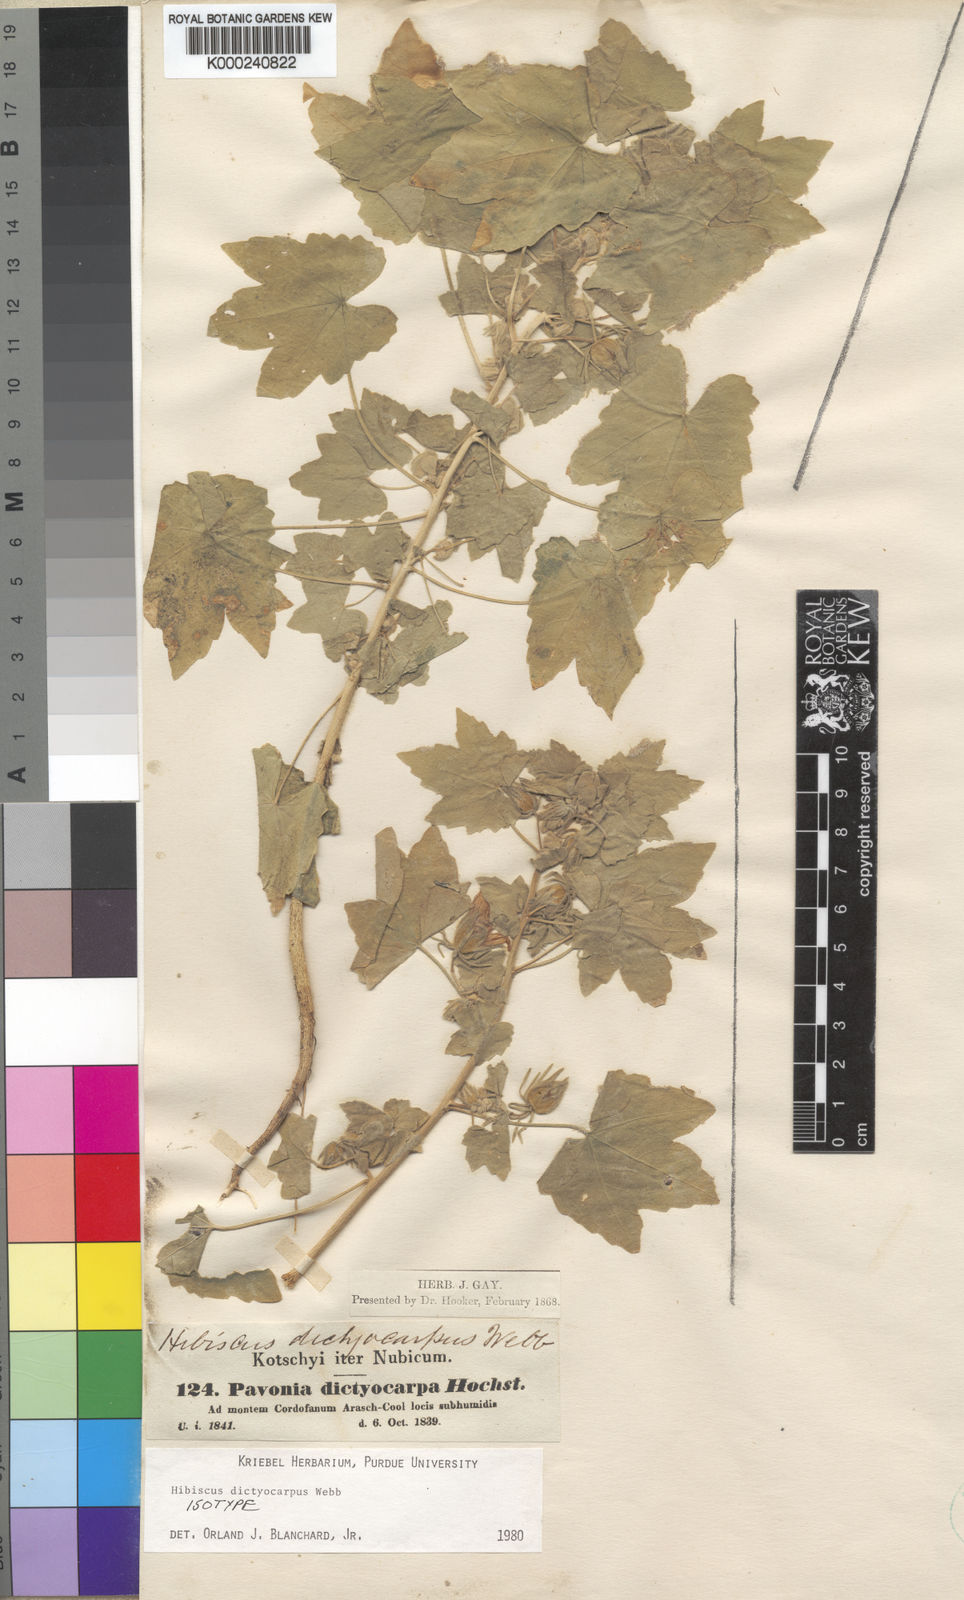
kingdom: Plantae
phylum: Tracheophyta
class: Magnoliopsida
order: Malvales
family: Malvaceae
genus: Roifia
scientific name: Roifia dictyocarpa
